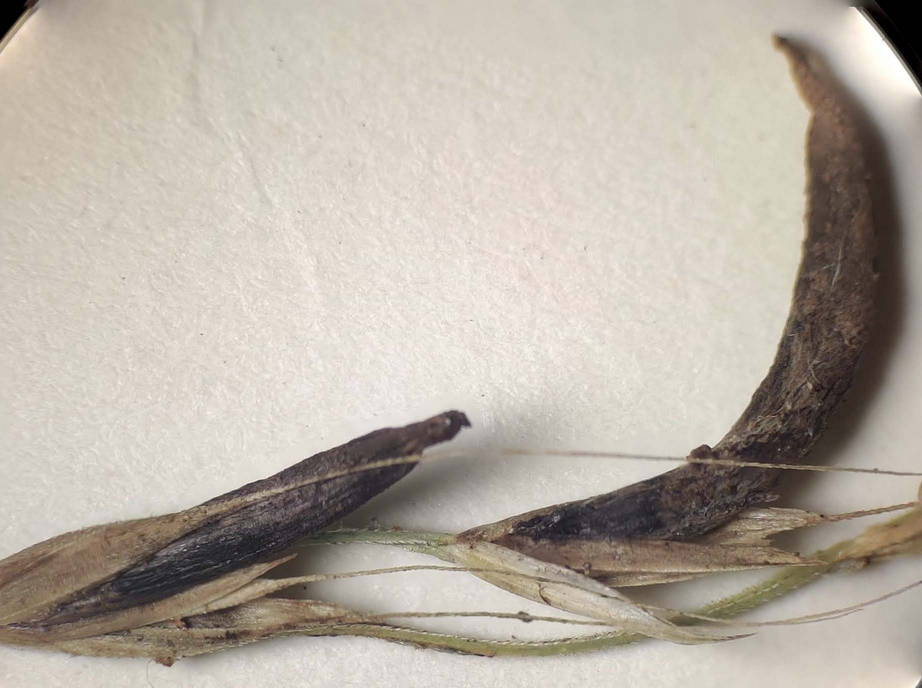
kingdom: Fungi
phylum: Ascomycota
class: Sordariomycetes
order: Hypocreales
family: Clavicipitaceae
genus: Claviceps
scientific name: Claviceps purpurea
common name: almindelig meldrøjer
